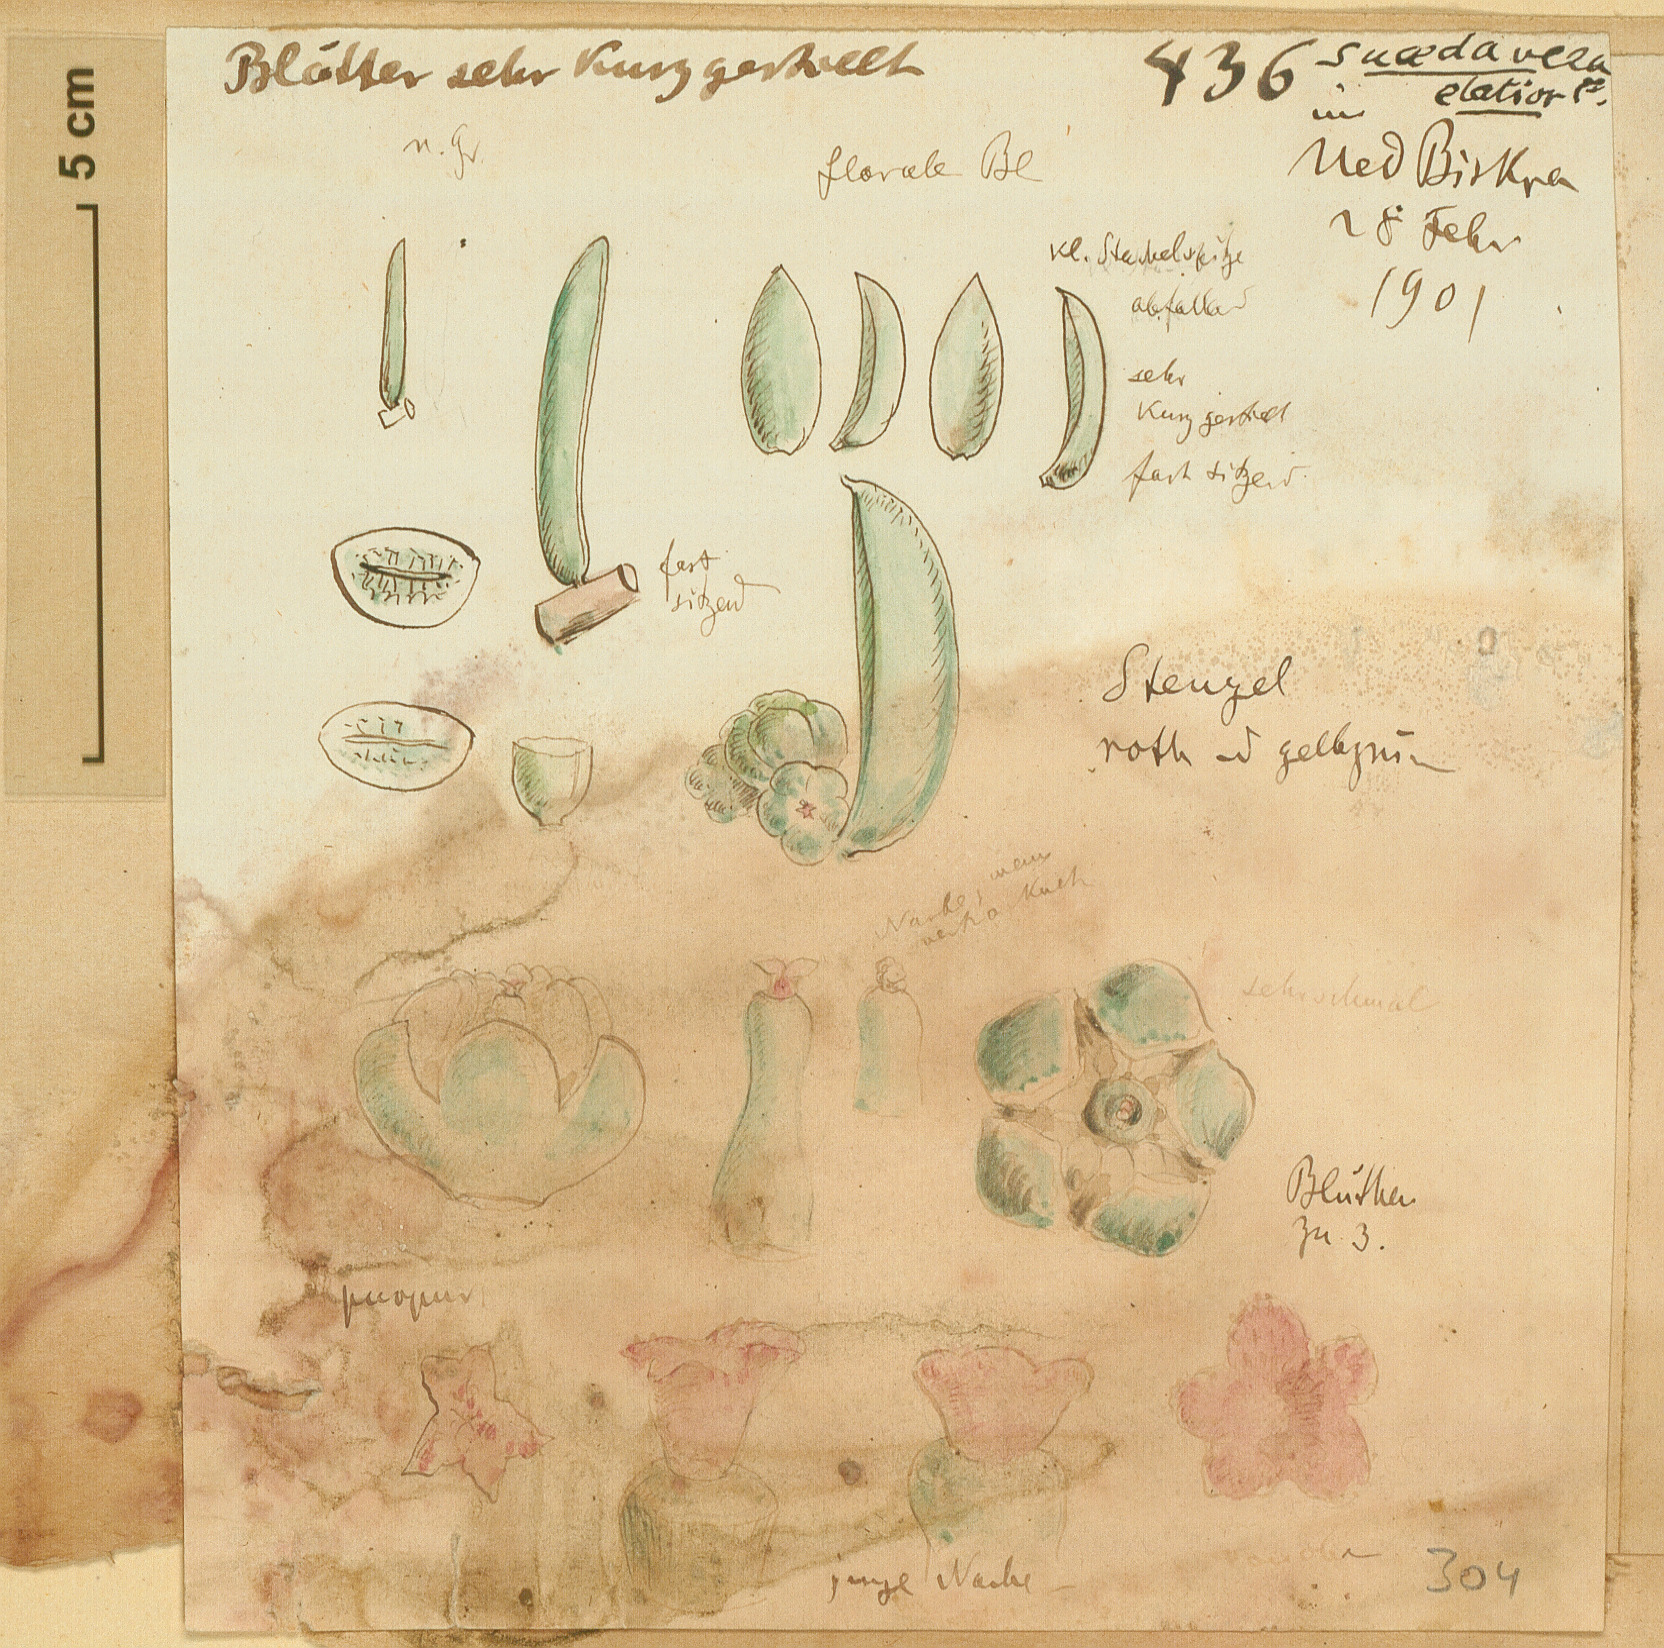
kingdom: Plantae
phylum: Tracheophyta
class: Magnoliopsida
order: Caryophyllales
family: Amaranthaceae
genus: Suaeda
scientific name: Suaeda vera
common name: Shrubby sea-blite
